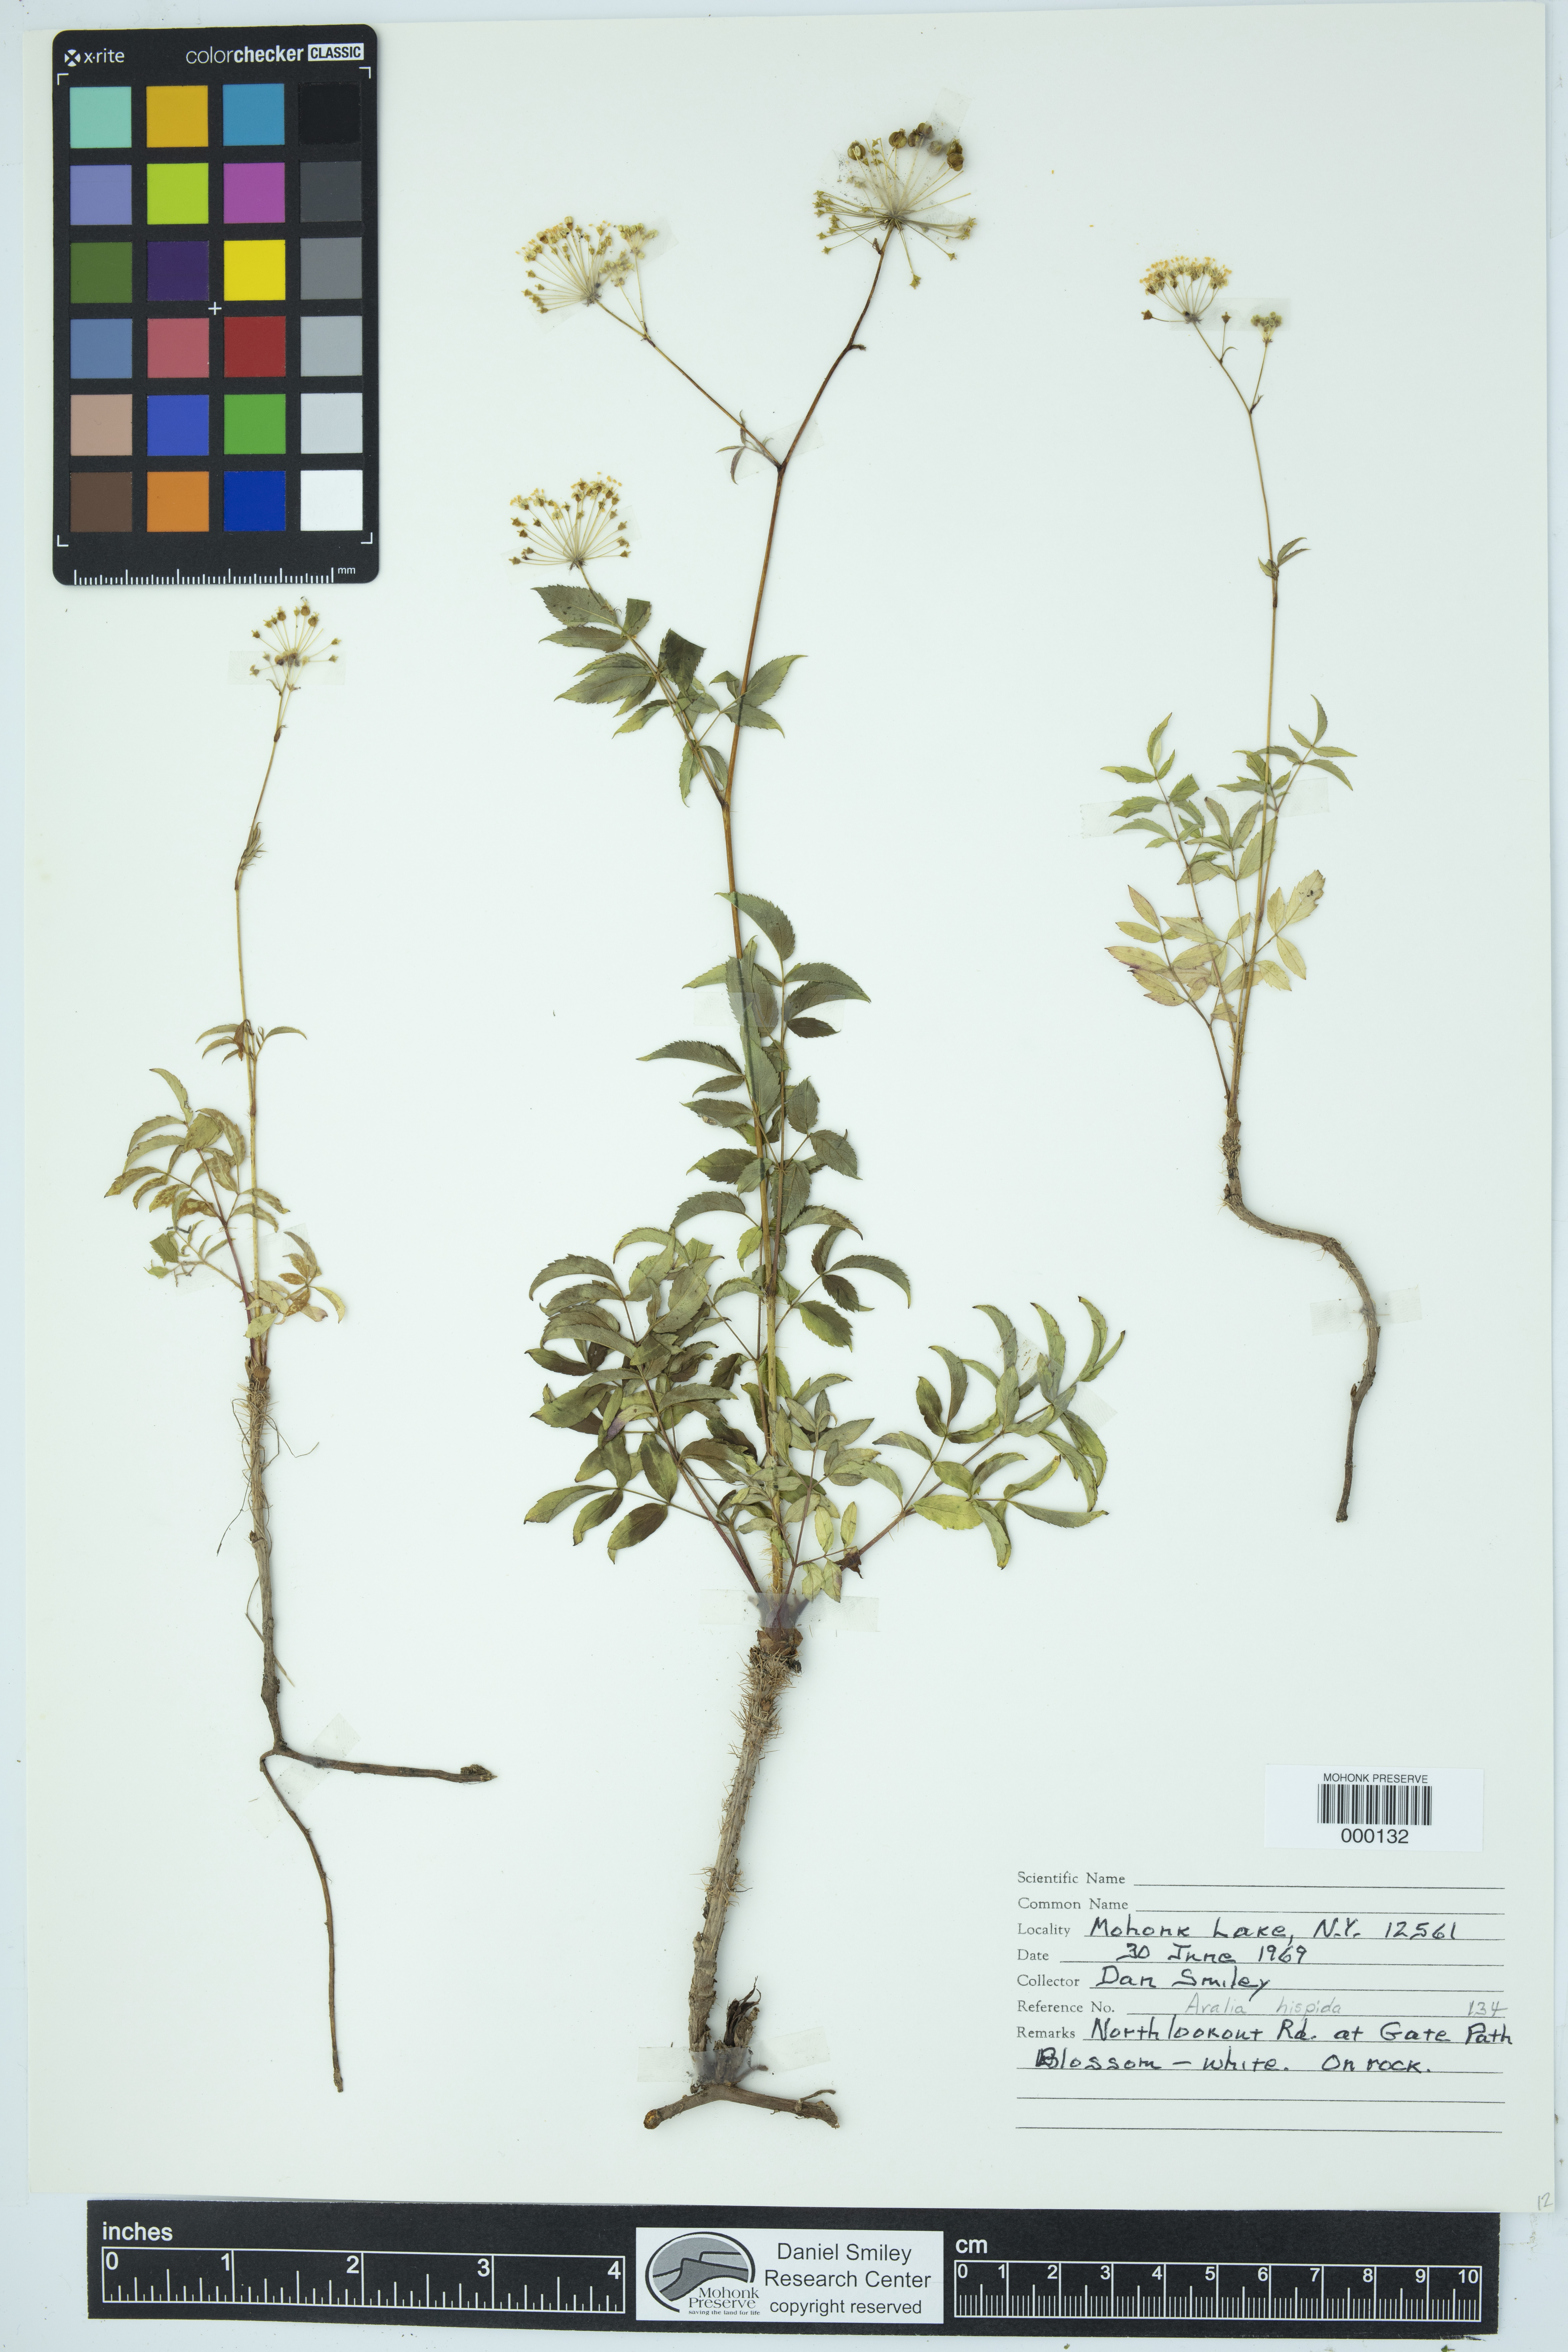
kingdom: Plantae
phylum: Tracheophyta
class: Magnoliopsida
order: Apiales
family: Araliaceae
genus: Aralia
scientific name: Aralia hispida
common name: Bristly sarsaparilla
